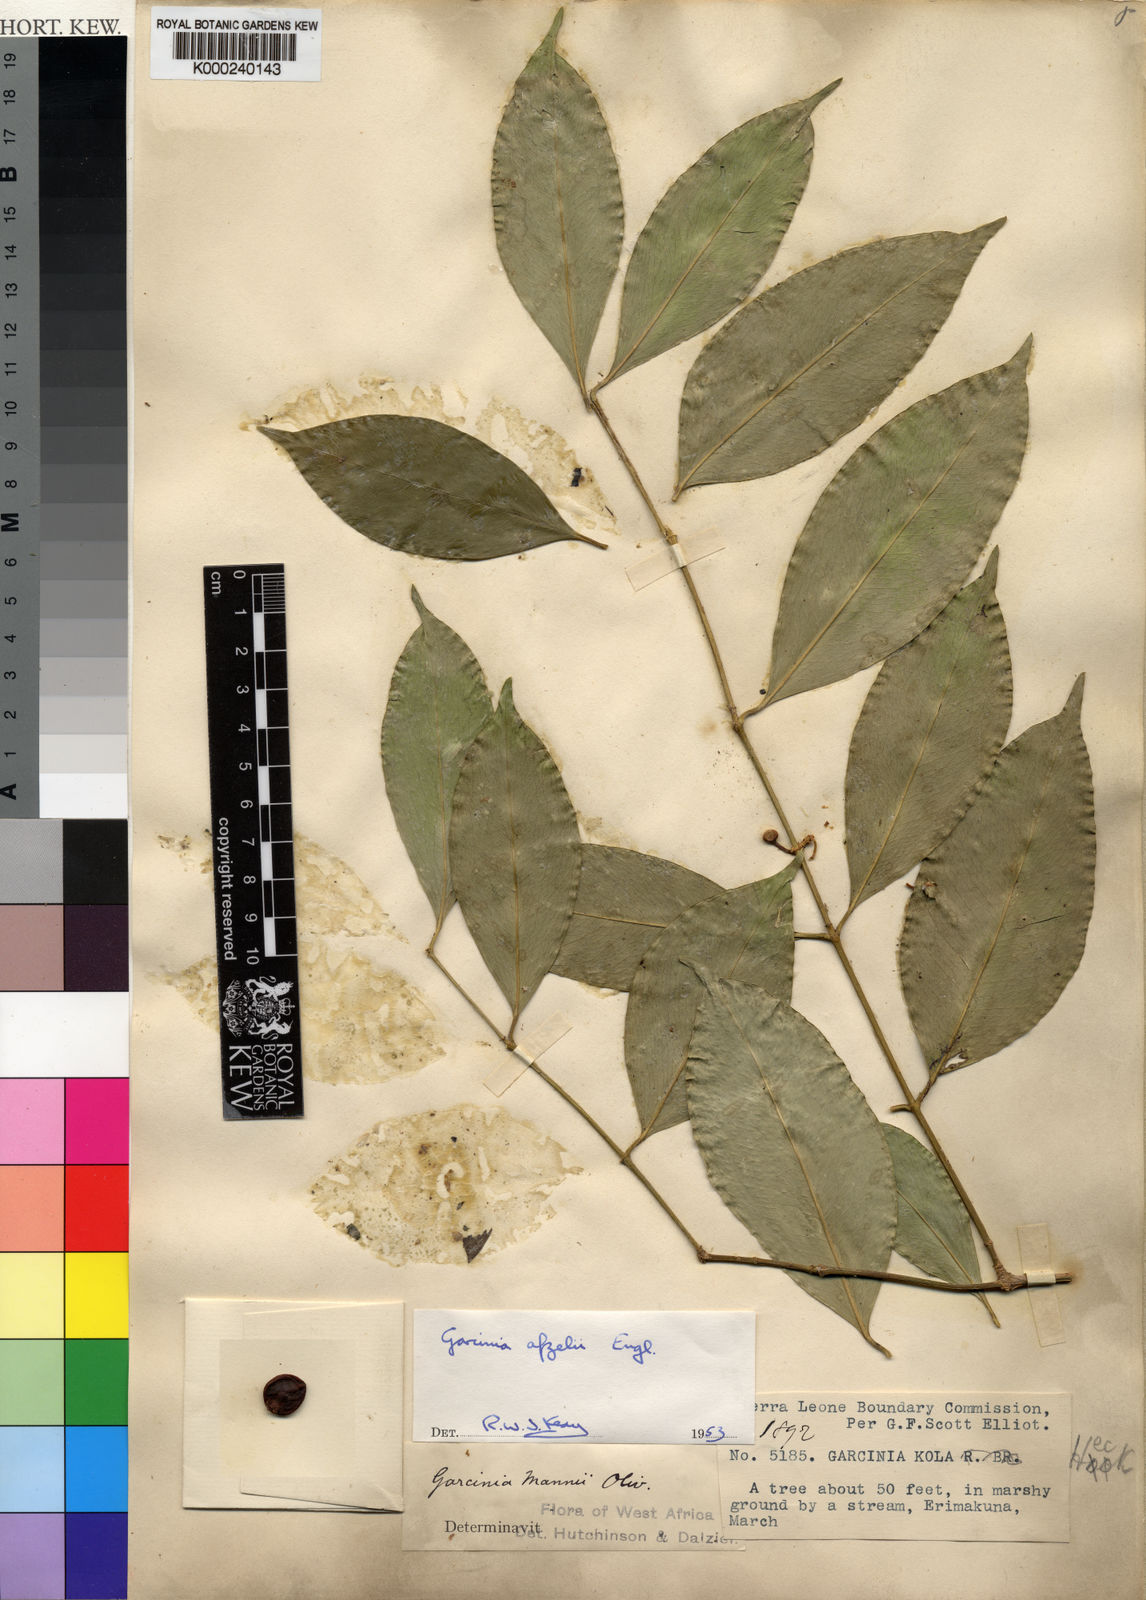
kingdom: Plantae
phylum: Tracheophyta
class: Magnoliopsida
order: Malpighiales
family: Clusiaceae
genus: Garcinia
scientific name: Garcinia afzelii
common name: Bitter-kola
